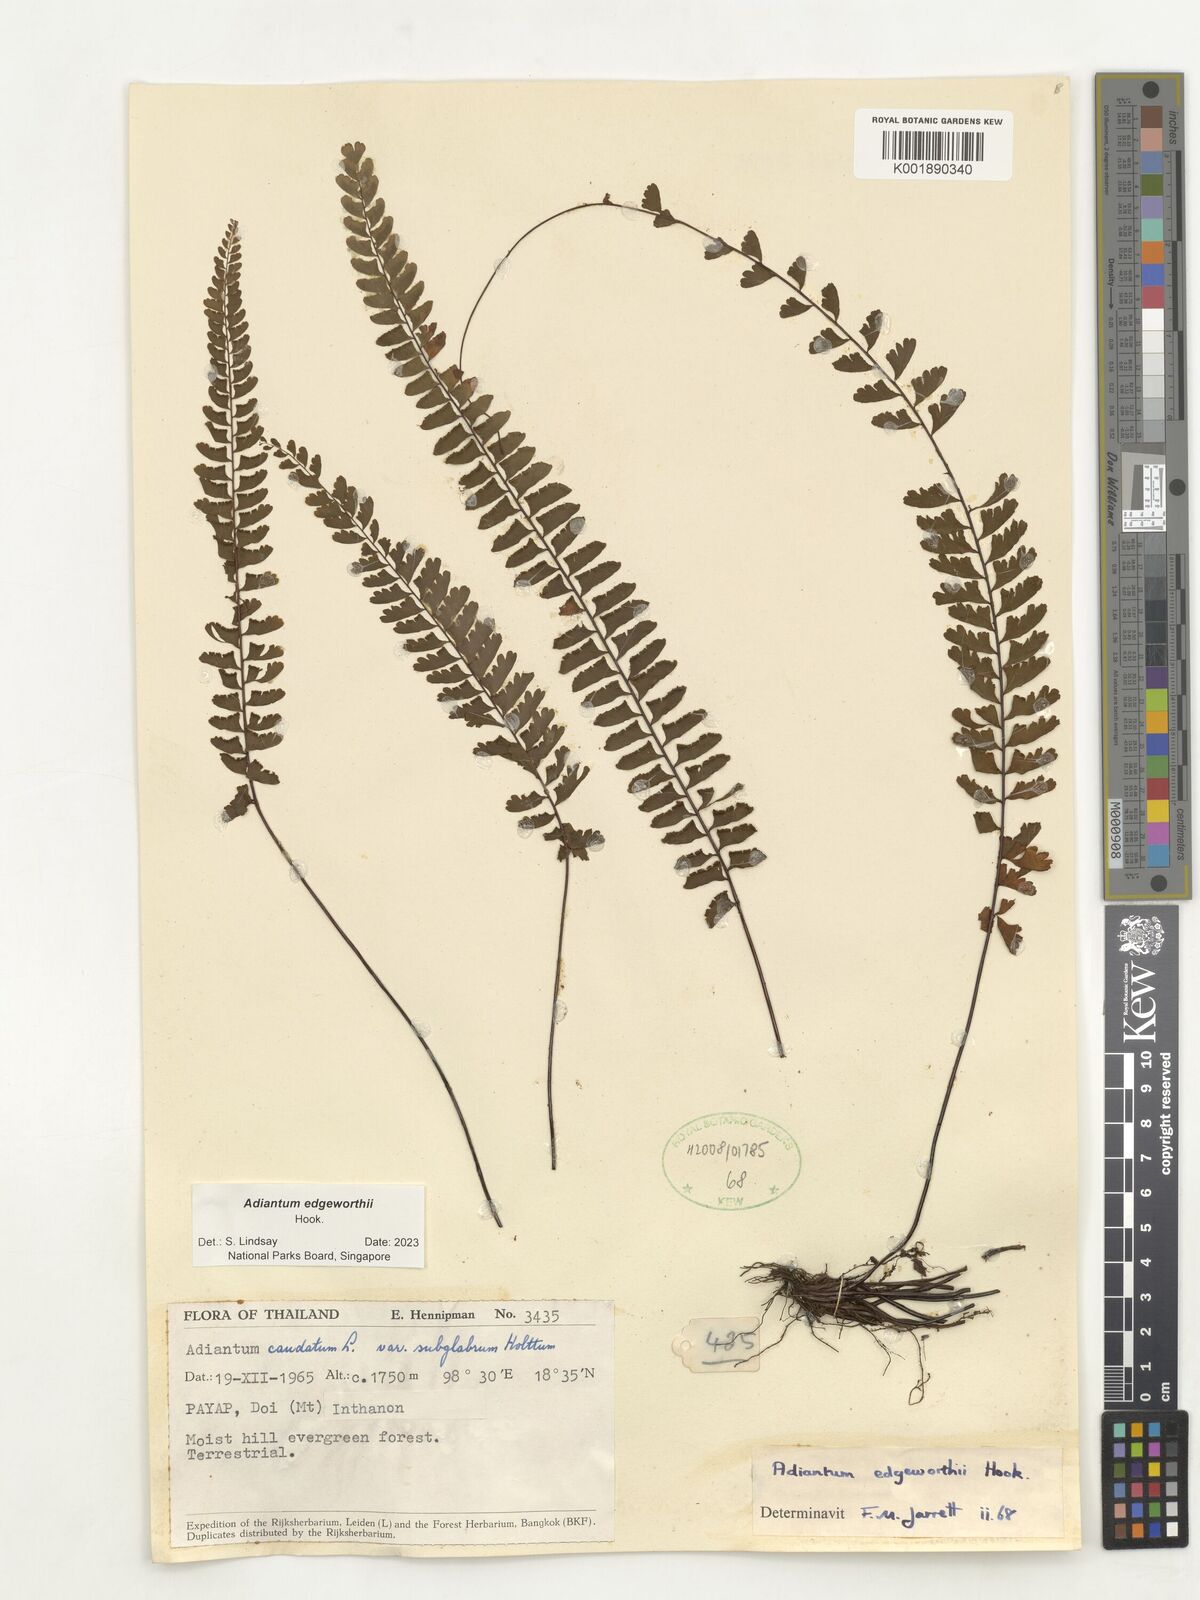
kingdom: Plantae
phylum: Tracheophyta
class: Polypodiopsida
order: Polypodiales
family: Pteridaceae
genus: Adiantum
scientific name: Adiantum edgeworthii
